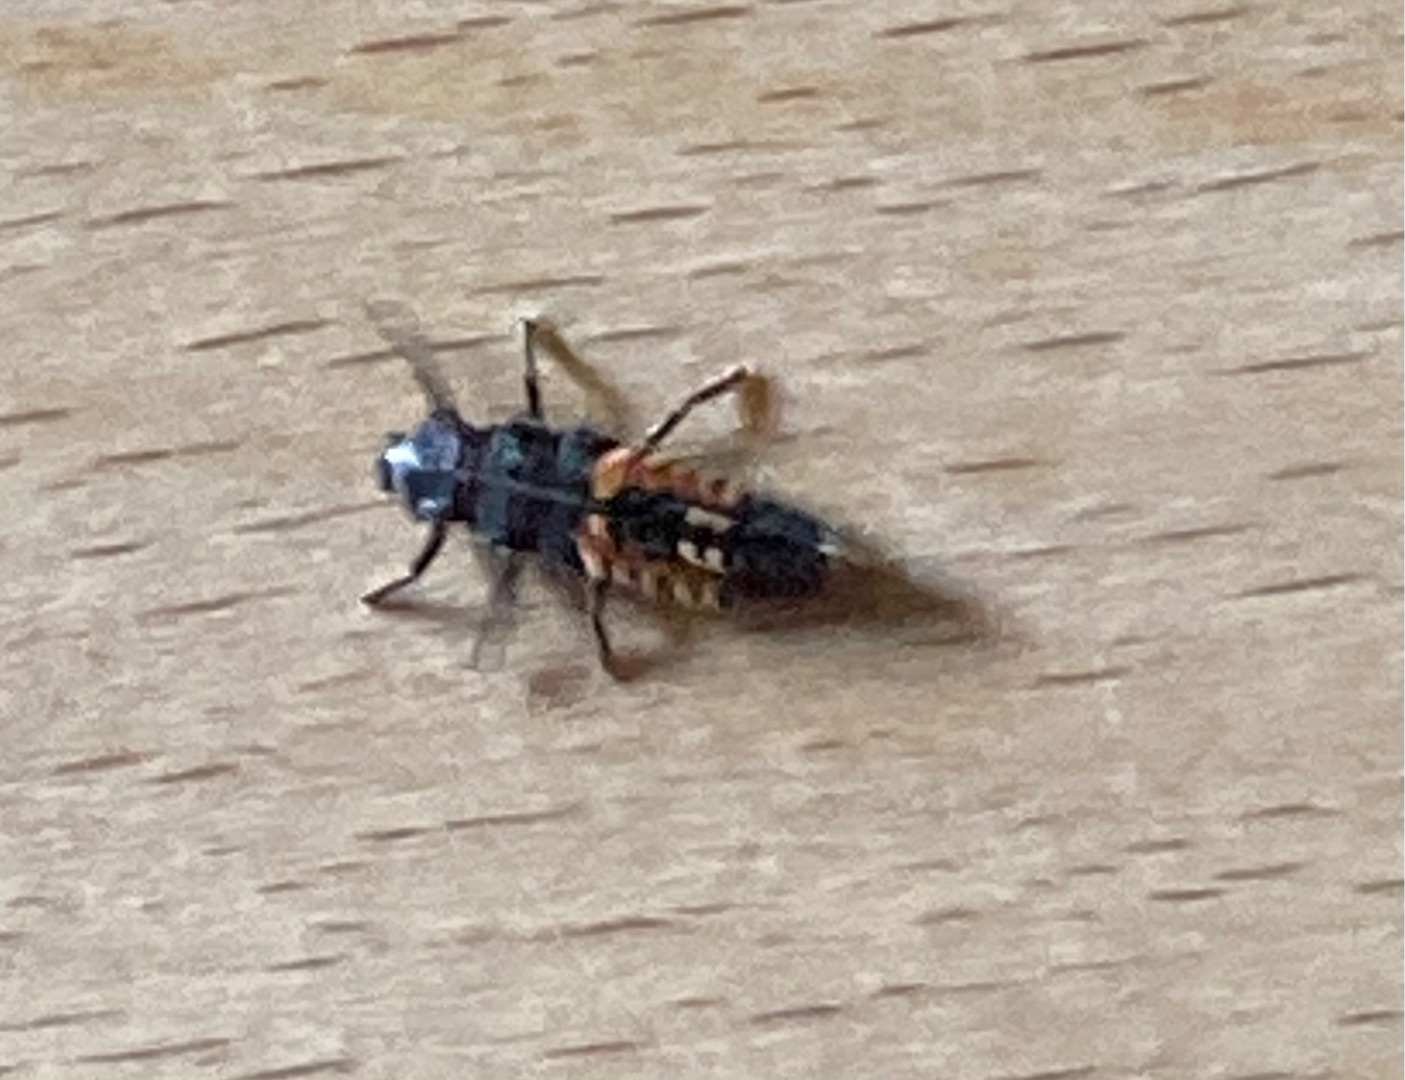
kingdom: Animalia
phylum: Arthropoda
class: Insecta
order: Coleoptera
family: Coccinellidae
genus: Harmonia
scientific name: Harmonia axyridis
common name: Harlekinmariehøne
